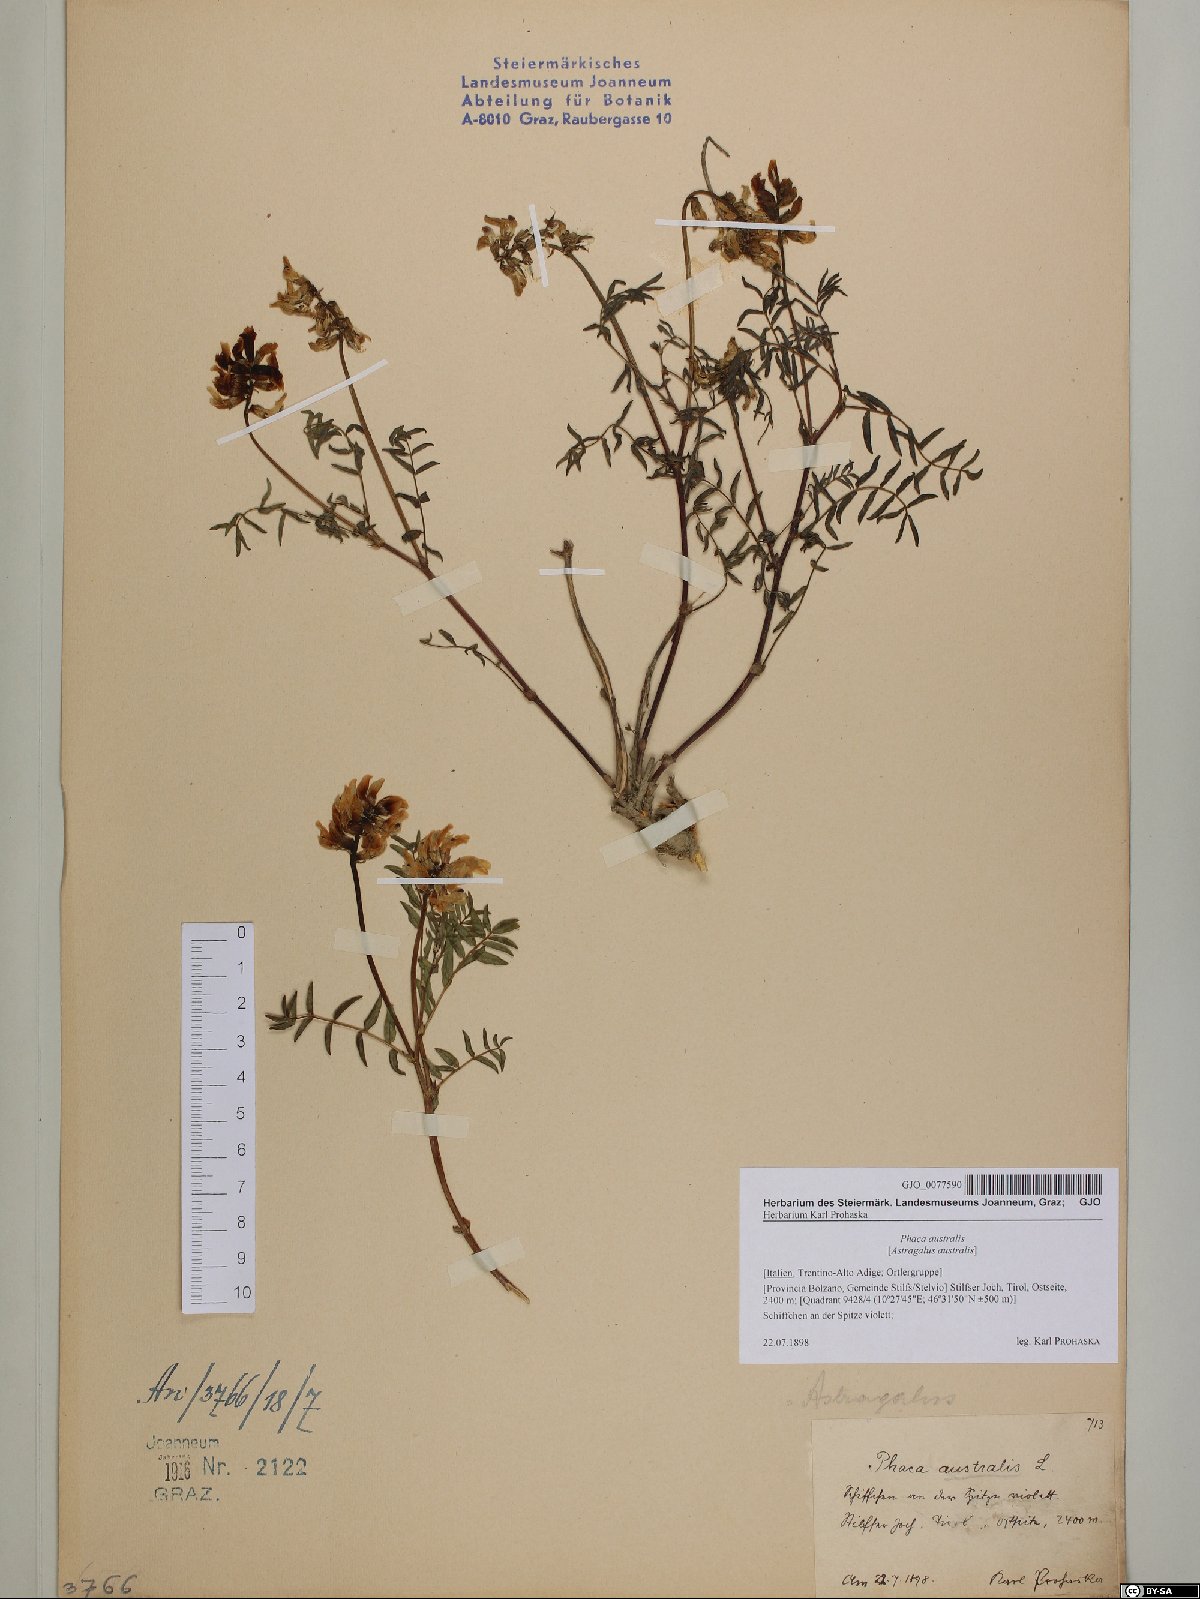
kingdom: Plantae
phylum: Tracheophyta
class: Magnoliopsida
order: Fabales
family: Fabaceae
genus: Astragalus
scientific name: Astragalus australis
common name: Indian milk-vetch
